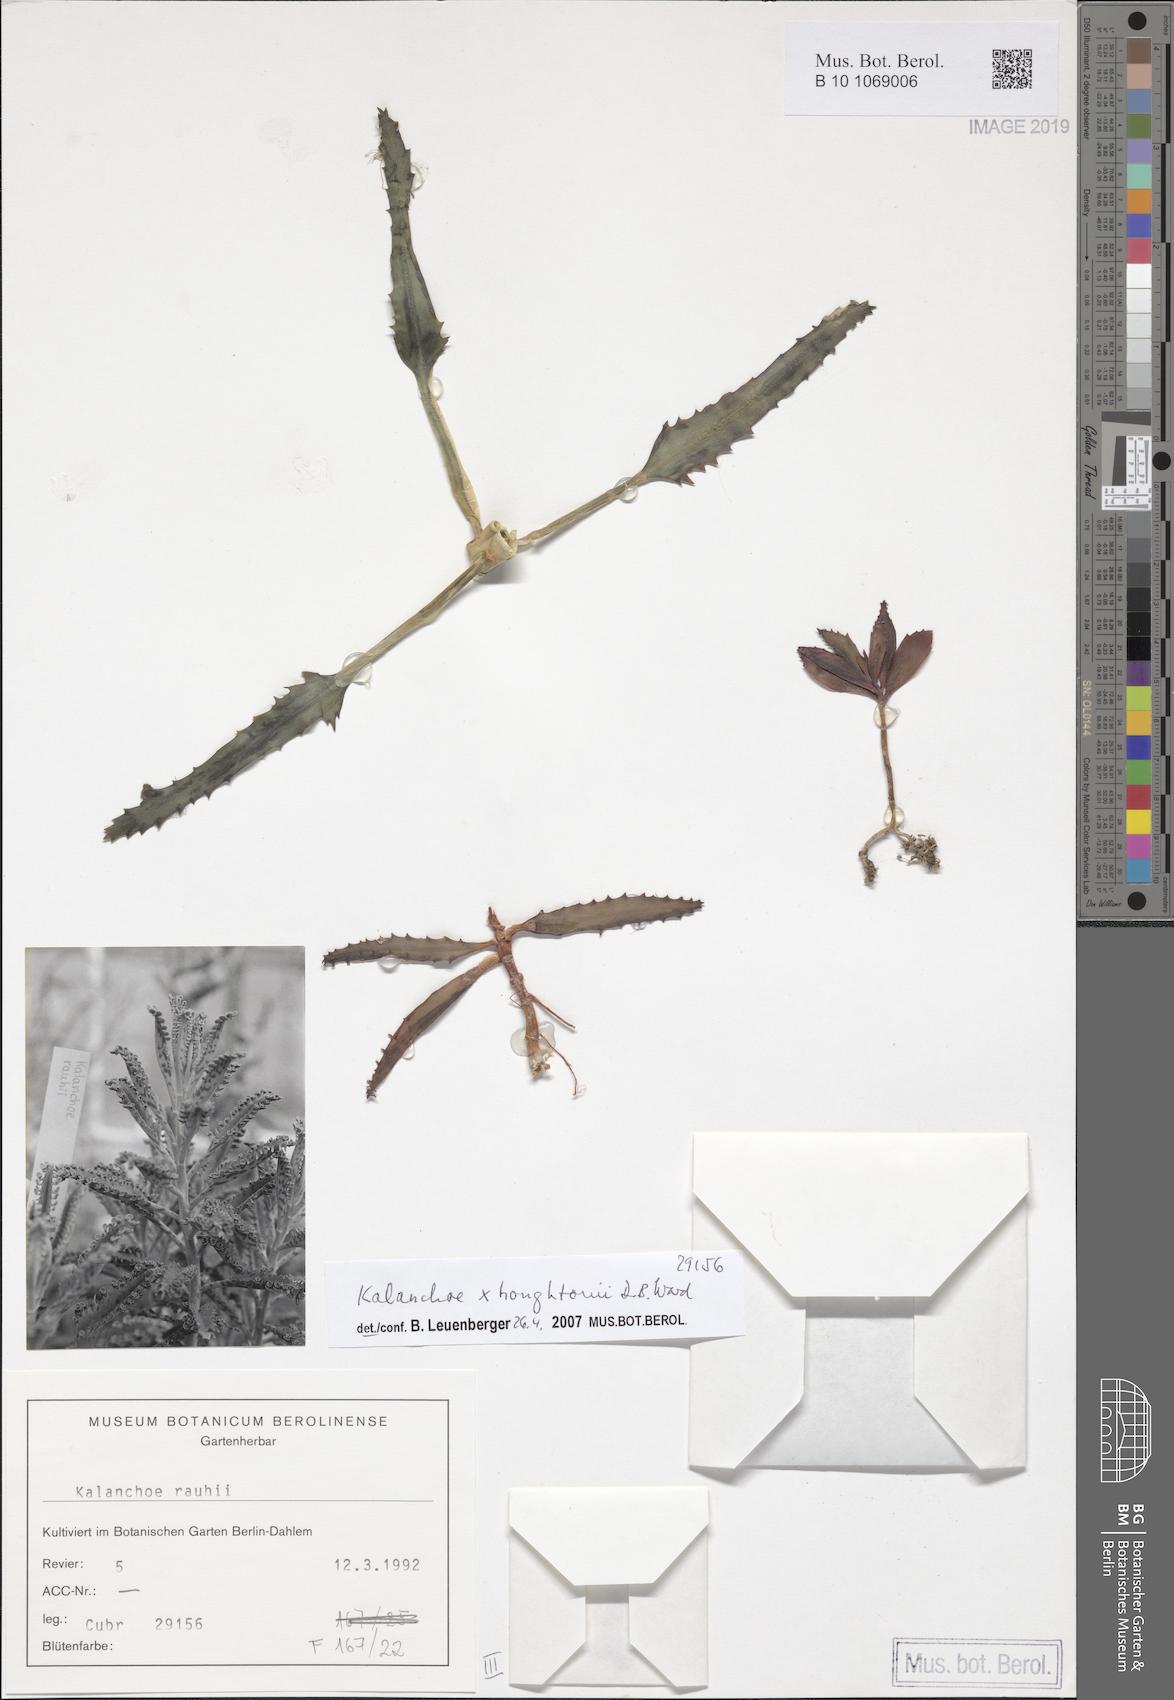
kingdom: Plantae
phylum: Tracheophyta
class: Magnoliopsida
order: Saxifragales
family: Crassulaceae
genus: Kalanchoe
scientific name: Kalanchoe houghtonii
